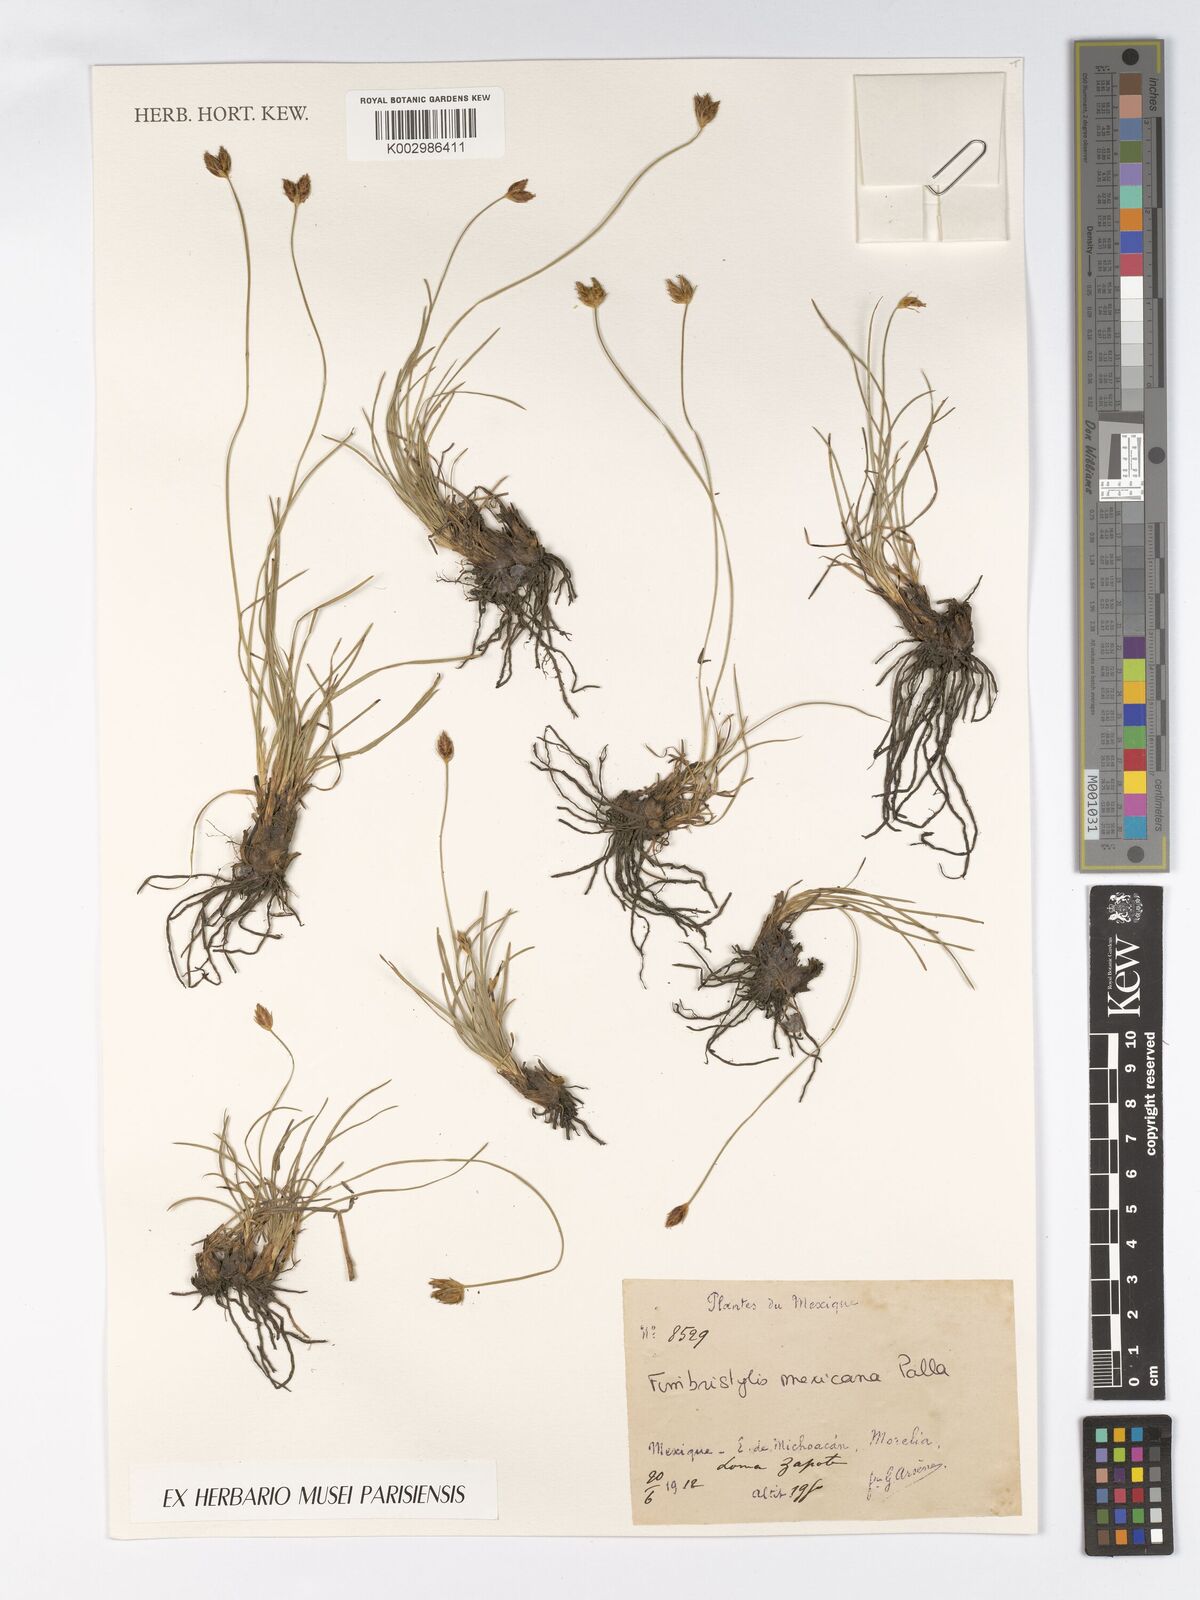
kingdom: Plantae
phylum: Tracheophyta
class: Liliopsida
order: Poales
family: Cyperaceae
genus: Abildgaardia
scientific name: Abildgaardia mexicana
